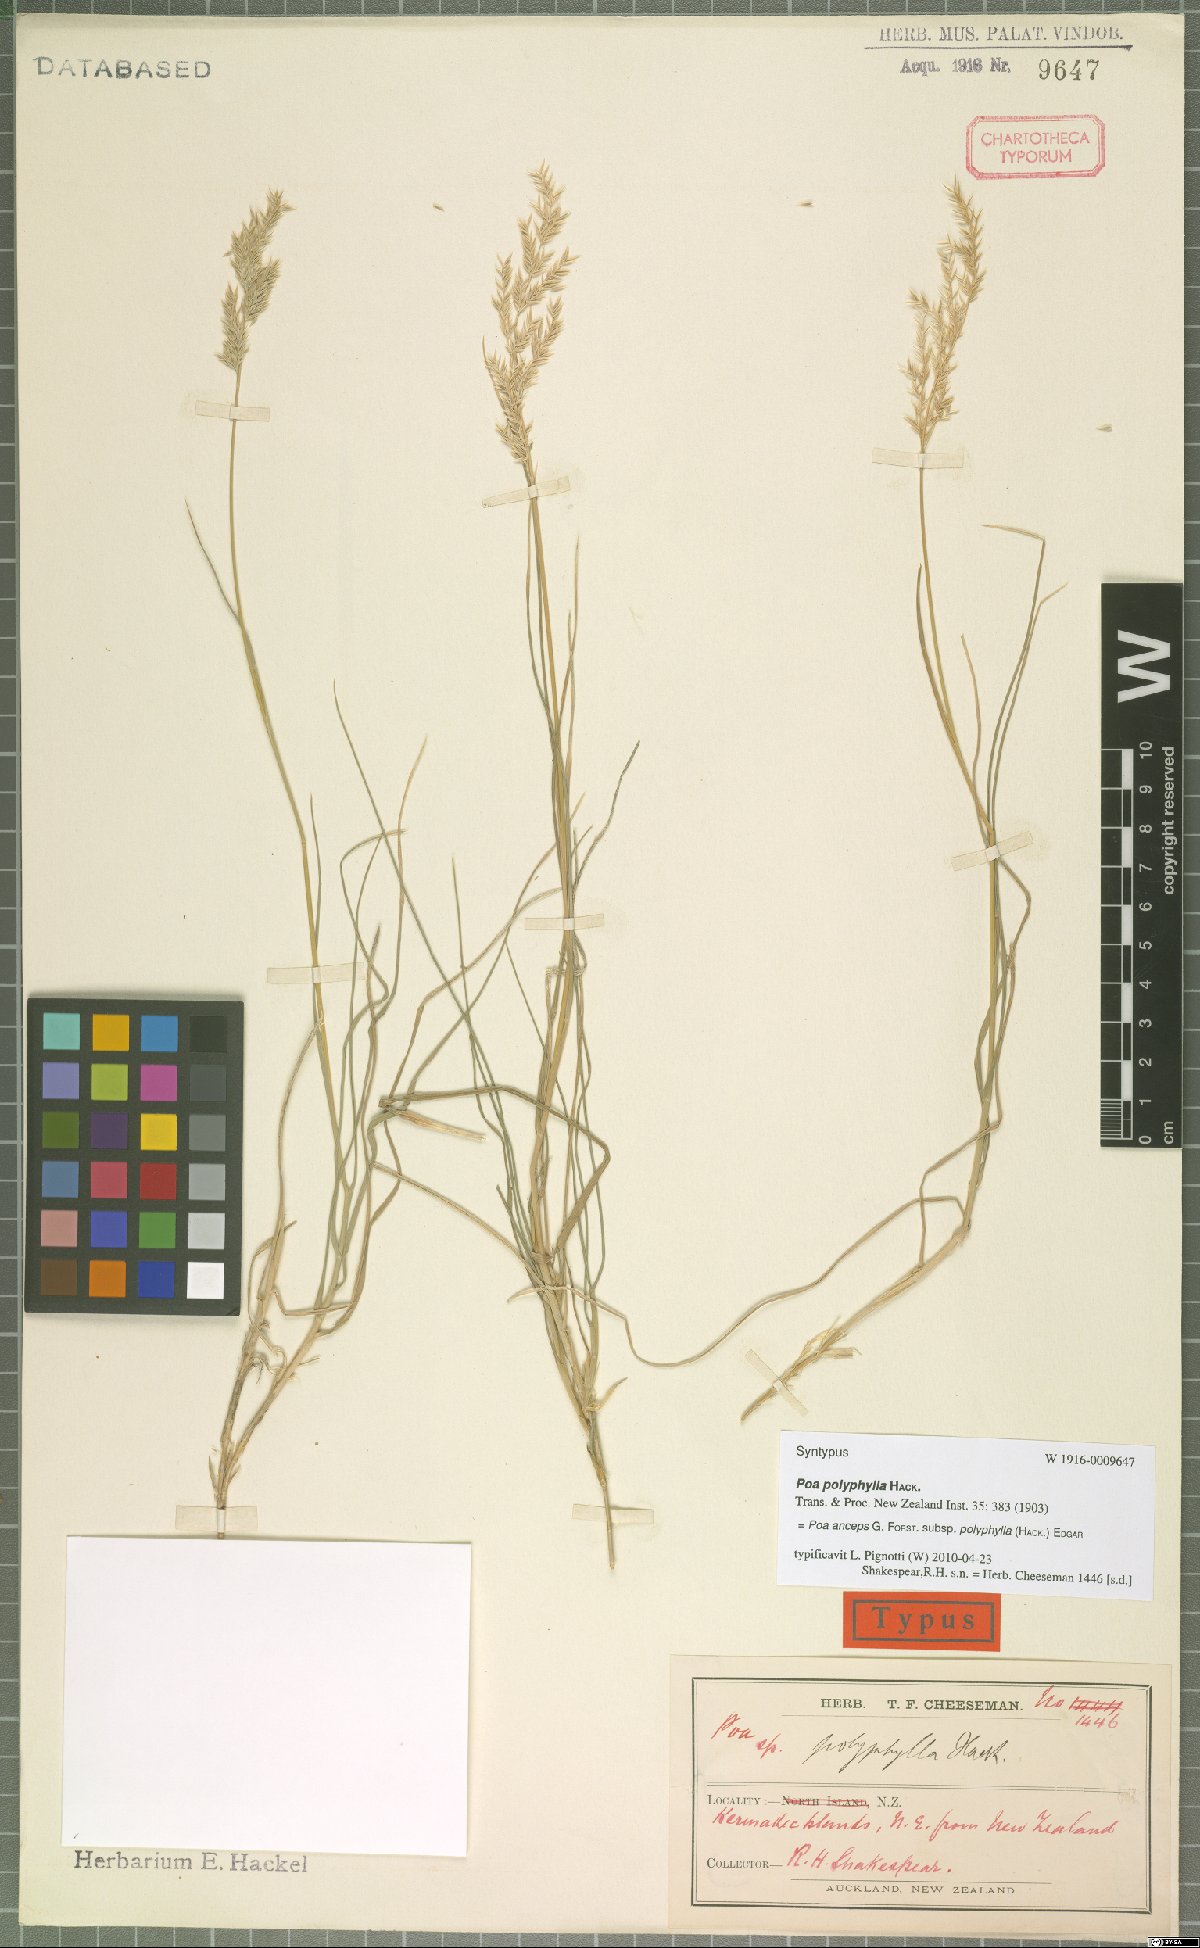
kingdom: Plantae
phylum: Tracheophyta
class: Liliopsida
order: Poales
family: Poaceae
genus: Poa
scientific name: Poa anceps
